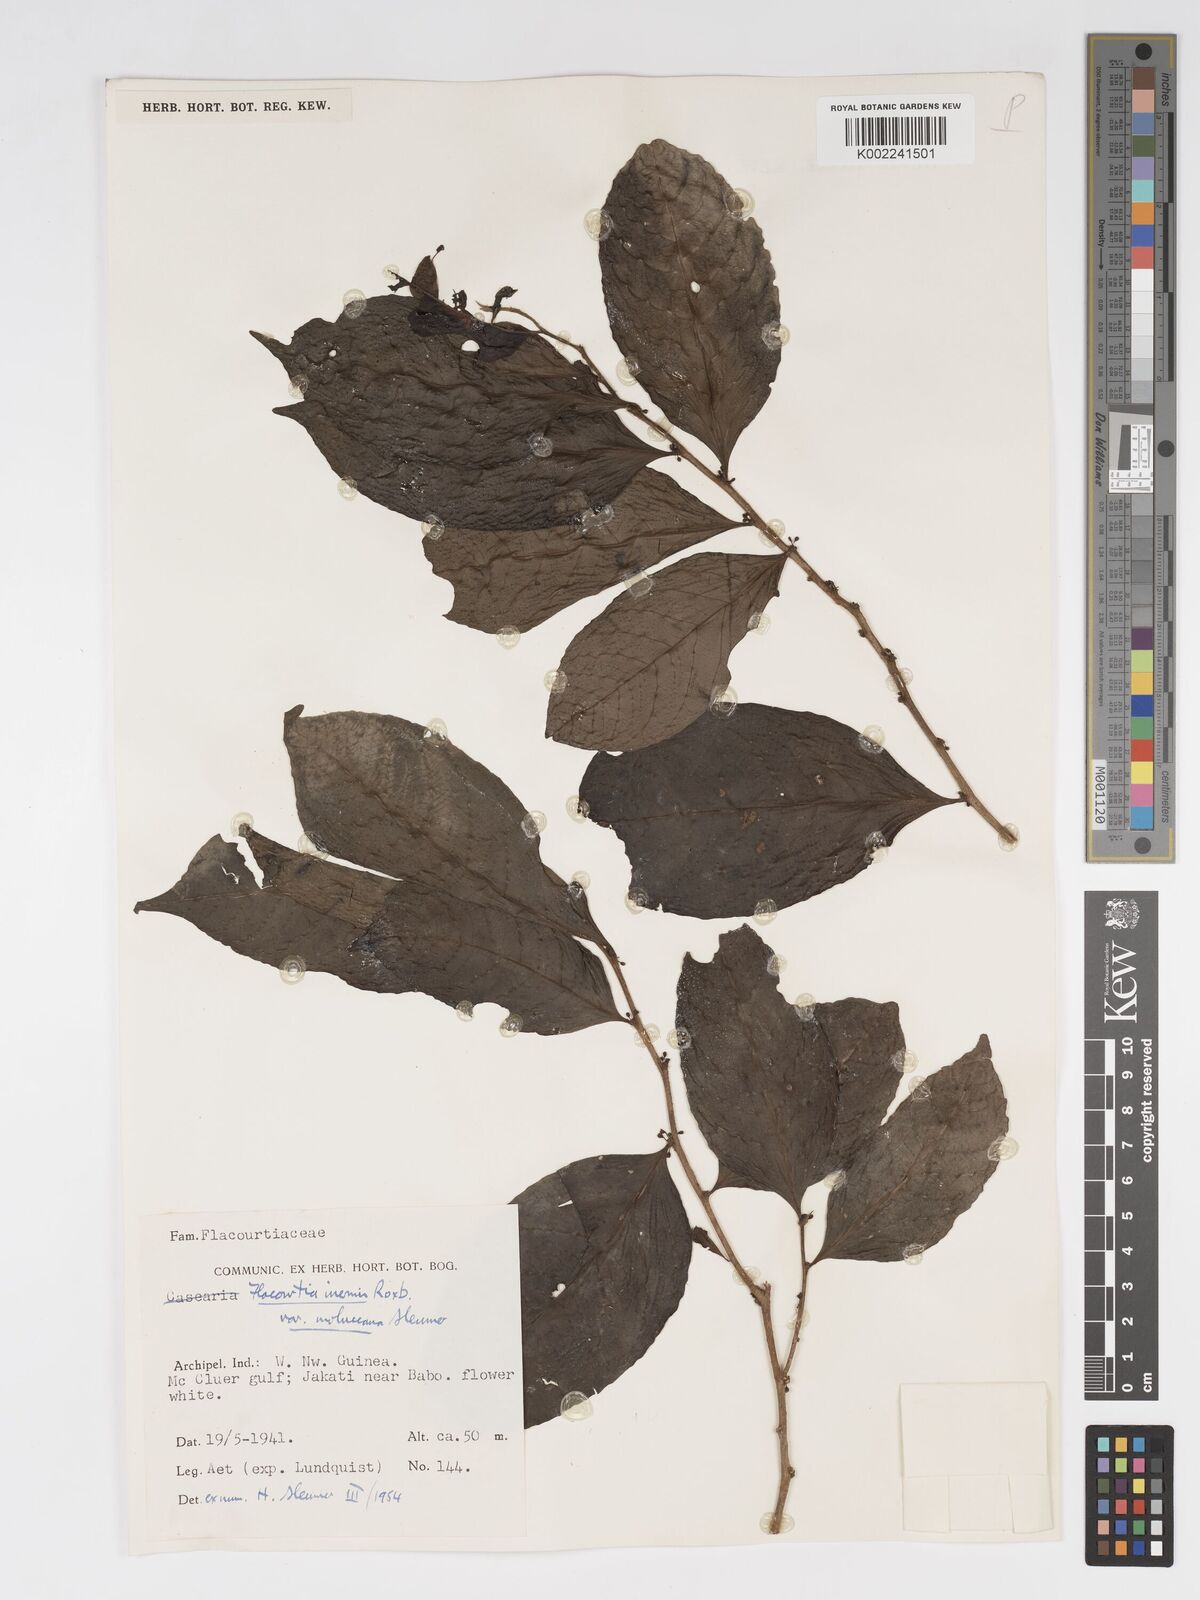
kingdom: Plantae
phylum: Tracheophyta
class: Magnoliopsida
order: Malpighiales
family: Salicaceae
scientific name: Salicaceae
